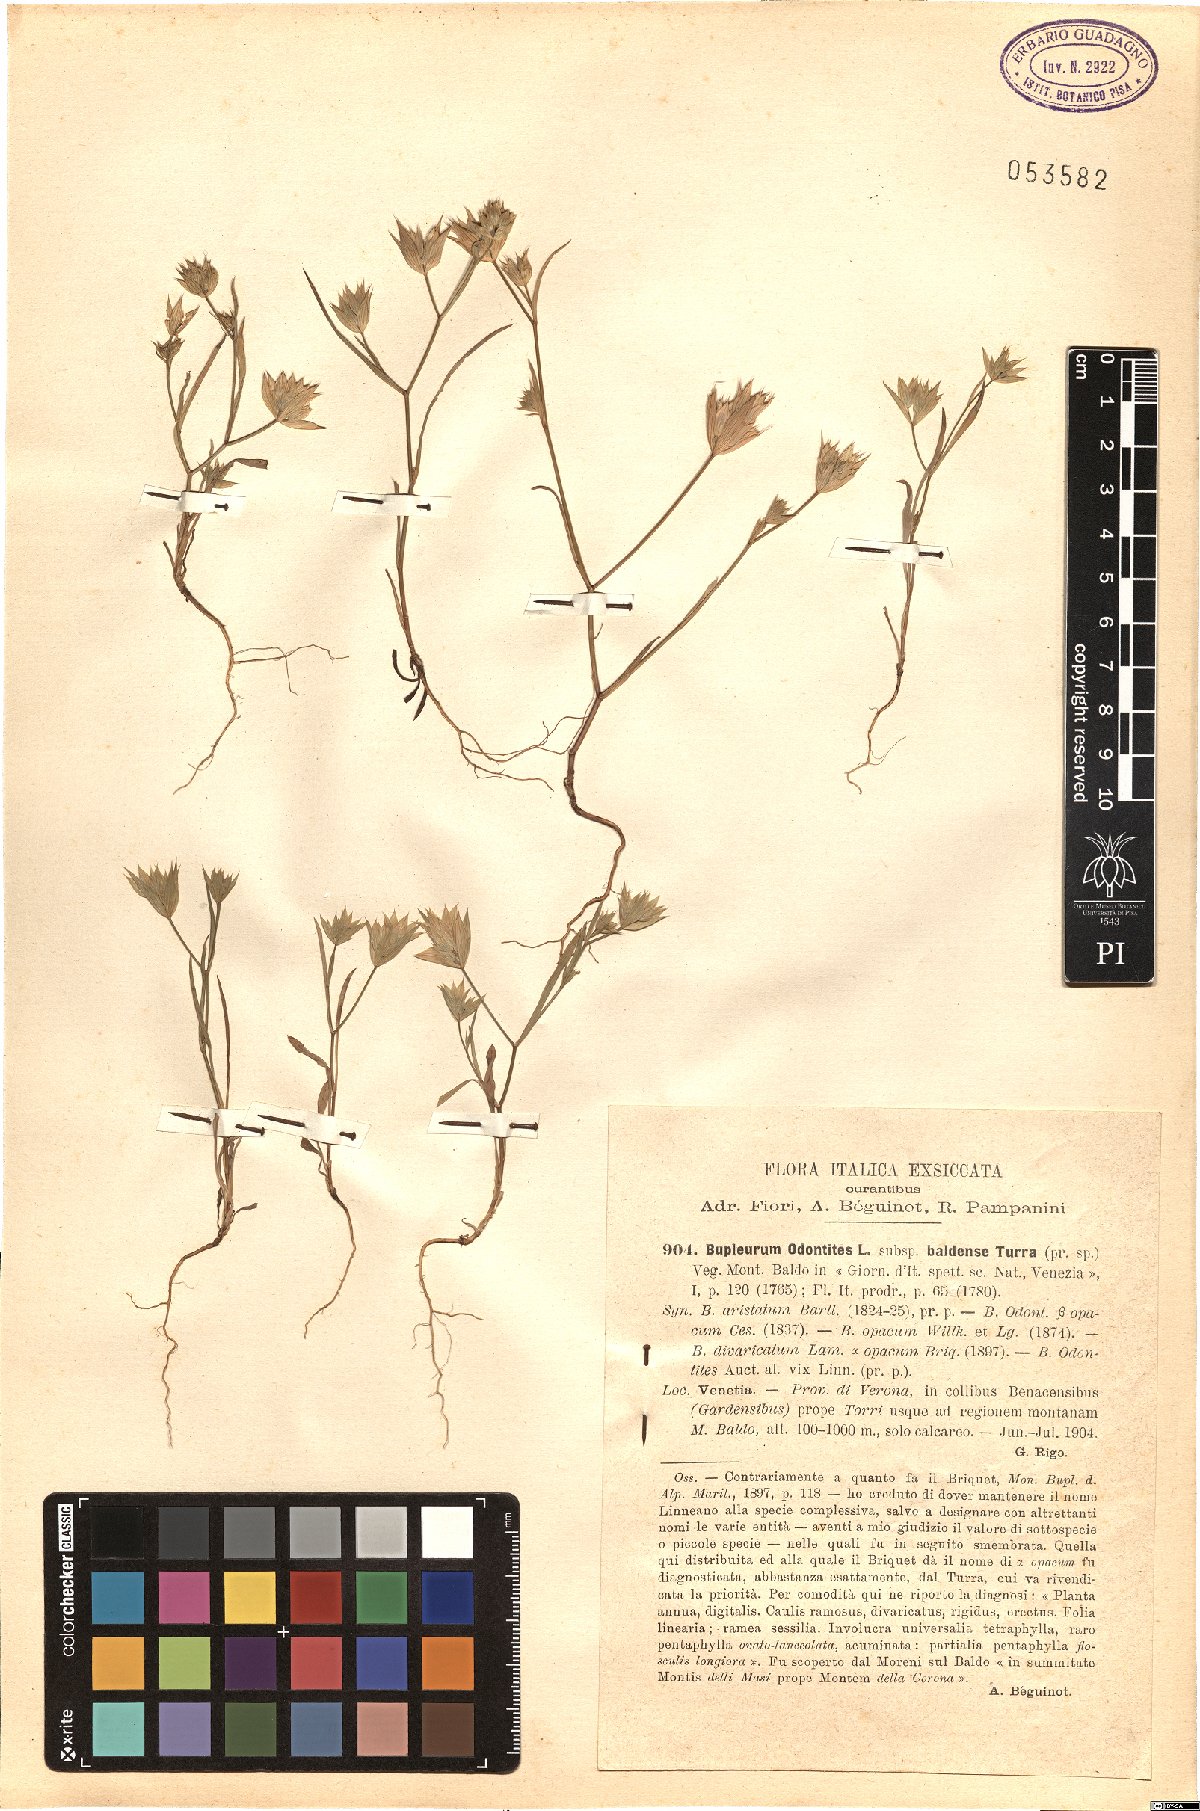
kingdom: Plantae
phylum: Tracheophyta
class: Magnoliopsida
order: Apiales
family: Apiaceae
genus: Bupleurum
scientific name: Bupleurum baldense
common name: Small hare's-ear
